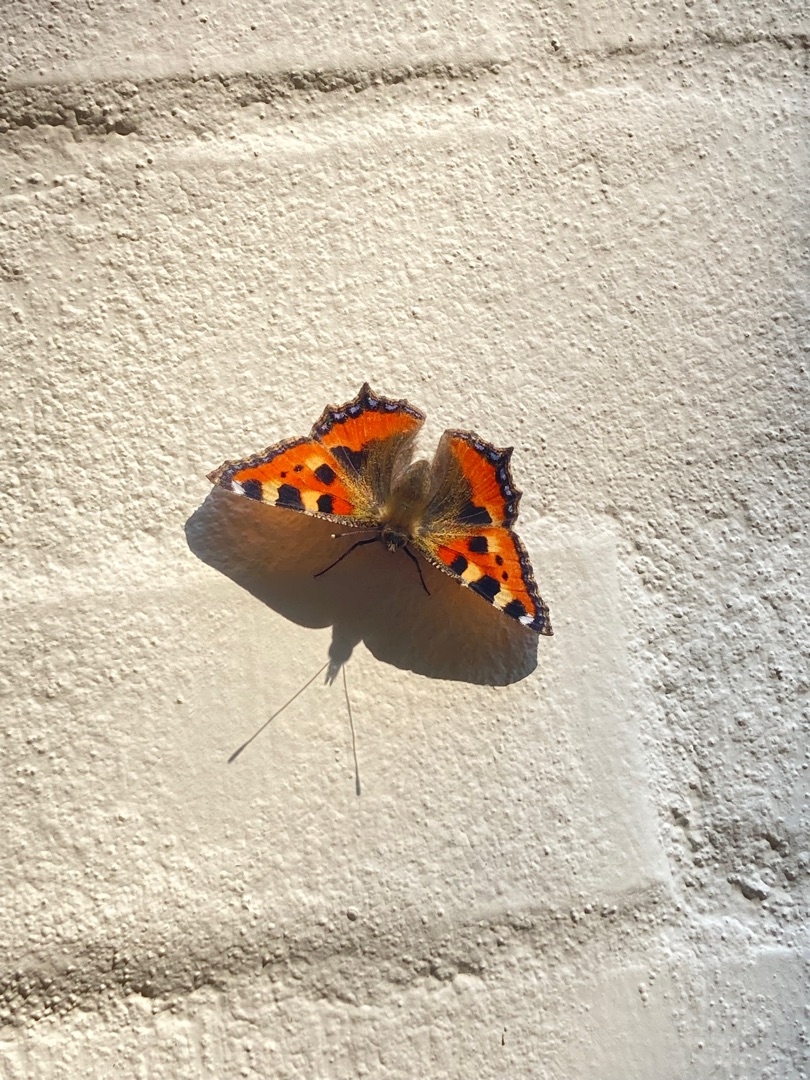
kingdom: Animalia
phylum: Arthropoda
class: Insecta
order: Lepidoptera
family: Nymphalidae
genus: Aglais
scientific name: Aglais urticae
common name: Nældens takvinge
